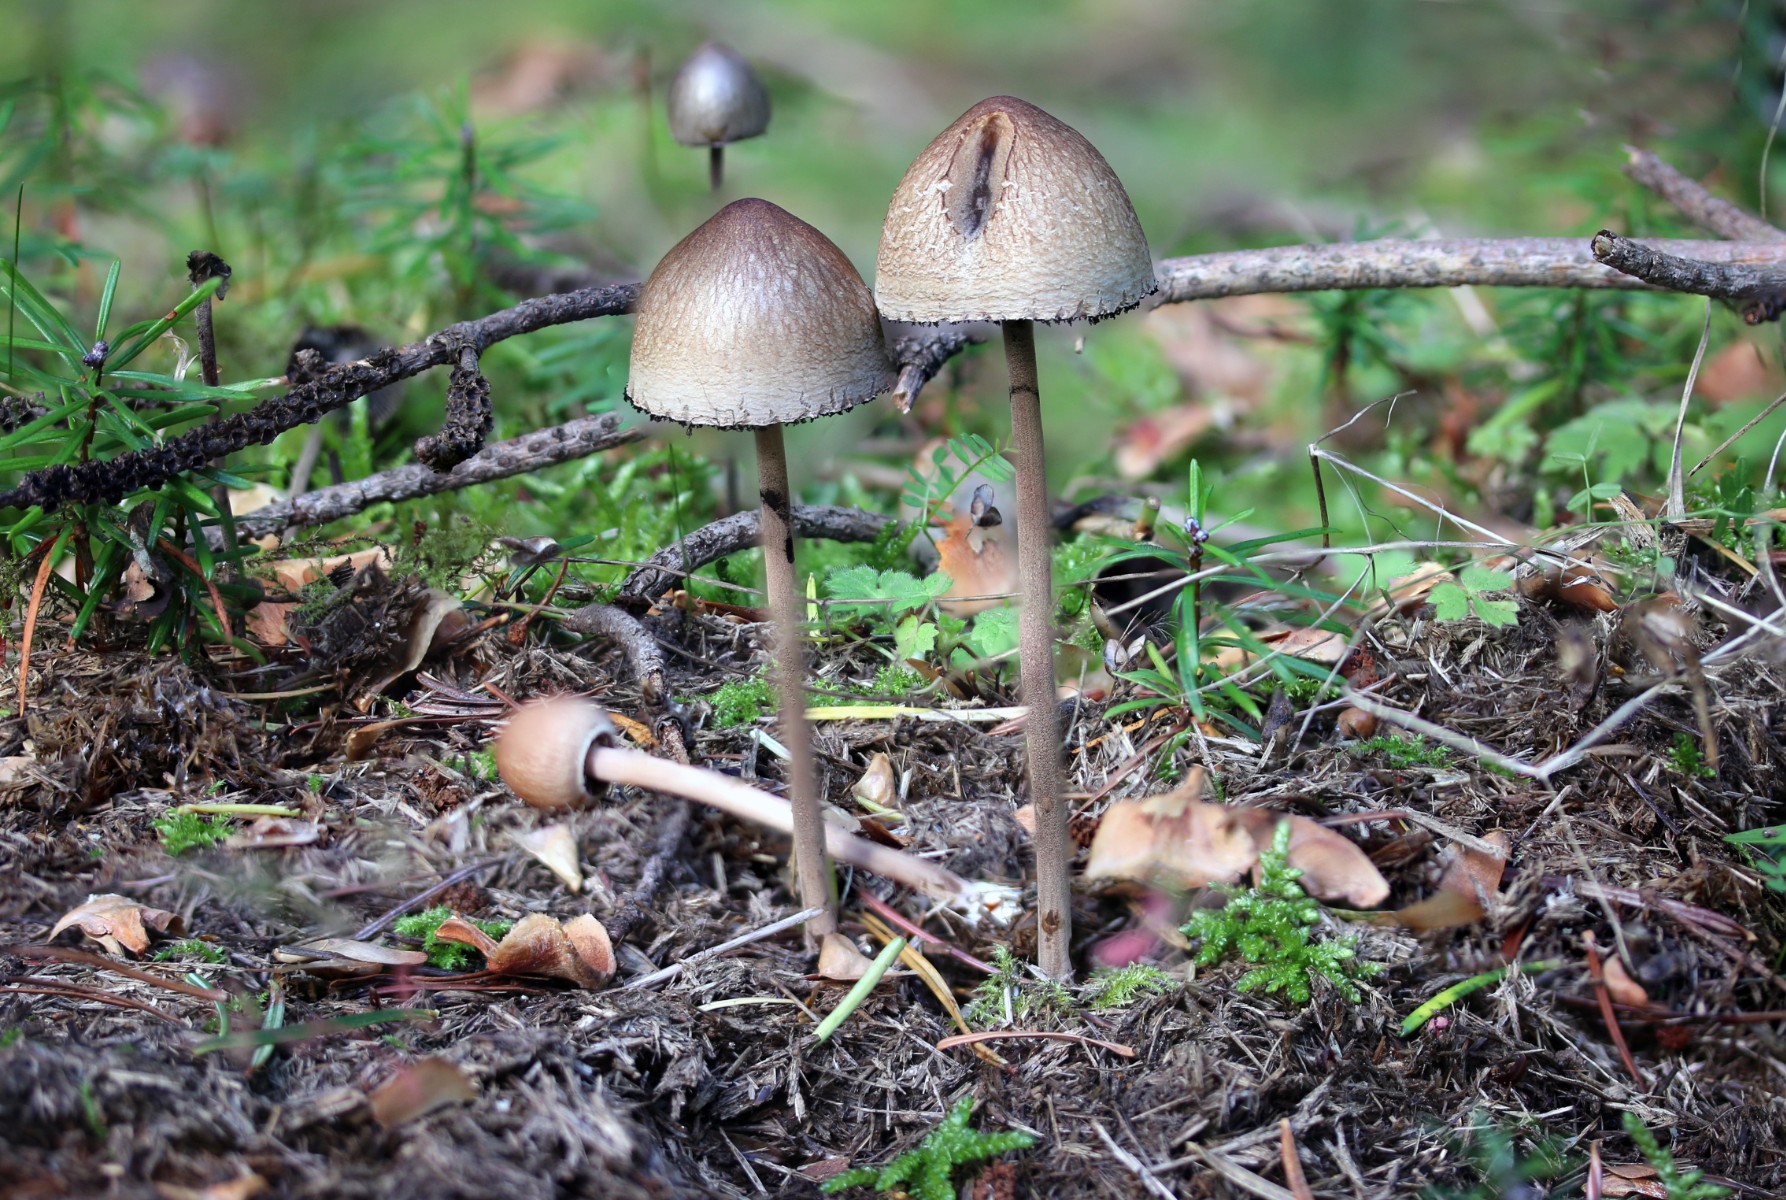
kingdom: Fungi
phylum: Basidiomycota
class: Agaricomycetes
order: Agaricales
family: Bolbitiaceae
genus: Panaeolus
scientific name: Panaeolus papilionaceus
